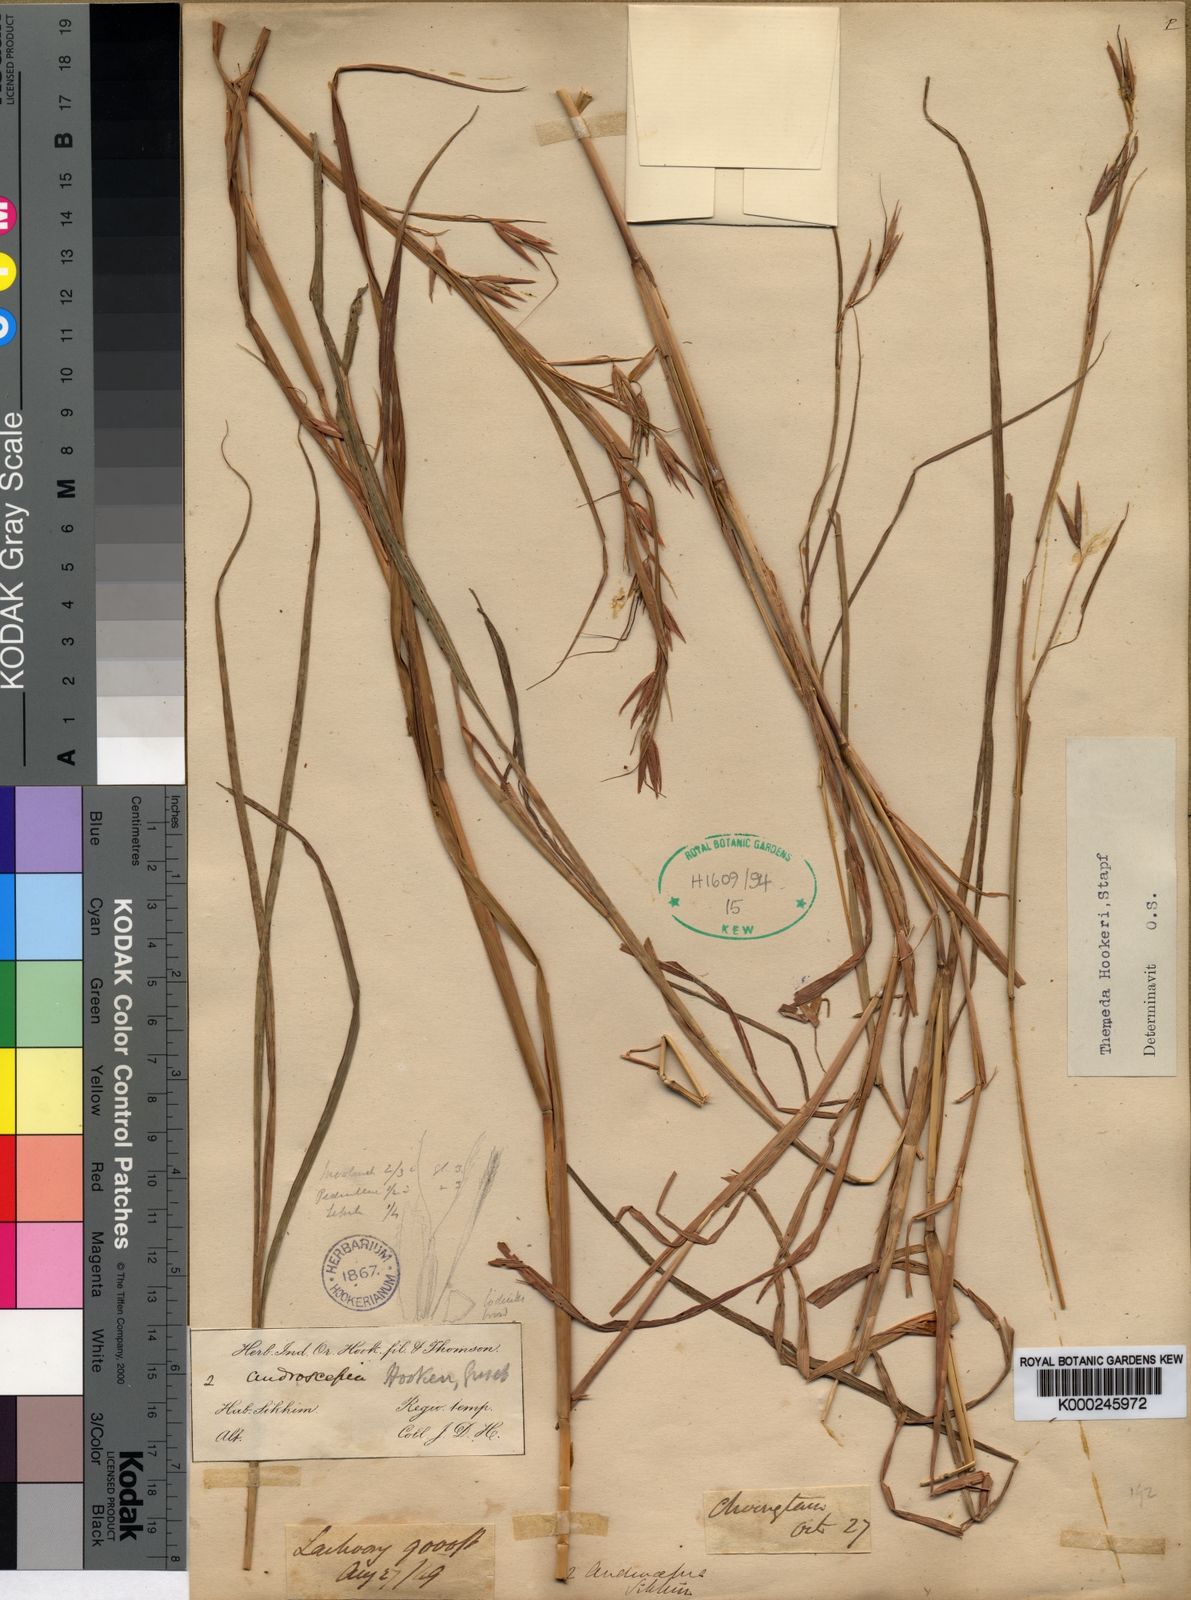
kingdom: Plantae
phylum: Tracheophyta
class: Liliopsida
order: Poales
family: Poaceae
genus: Themeda
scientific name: Themeda hookeri
